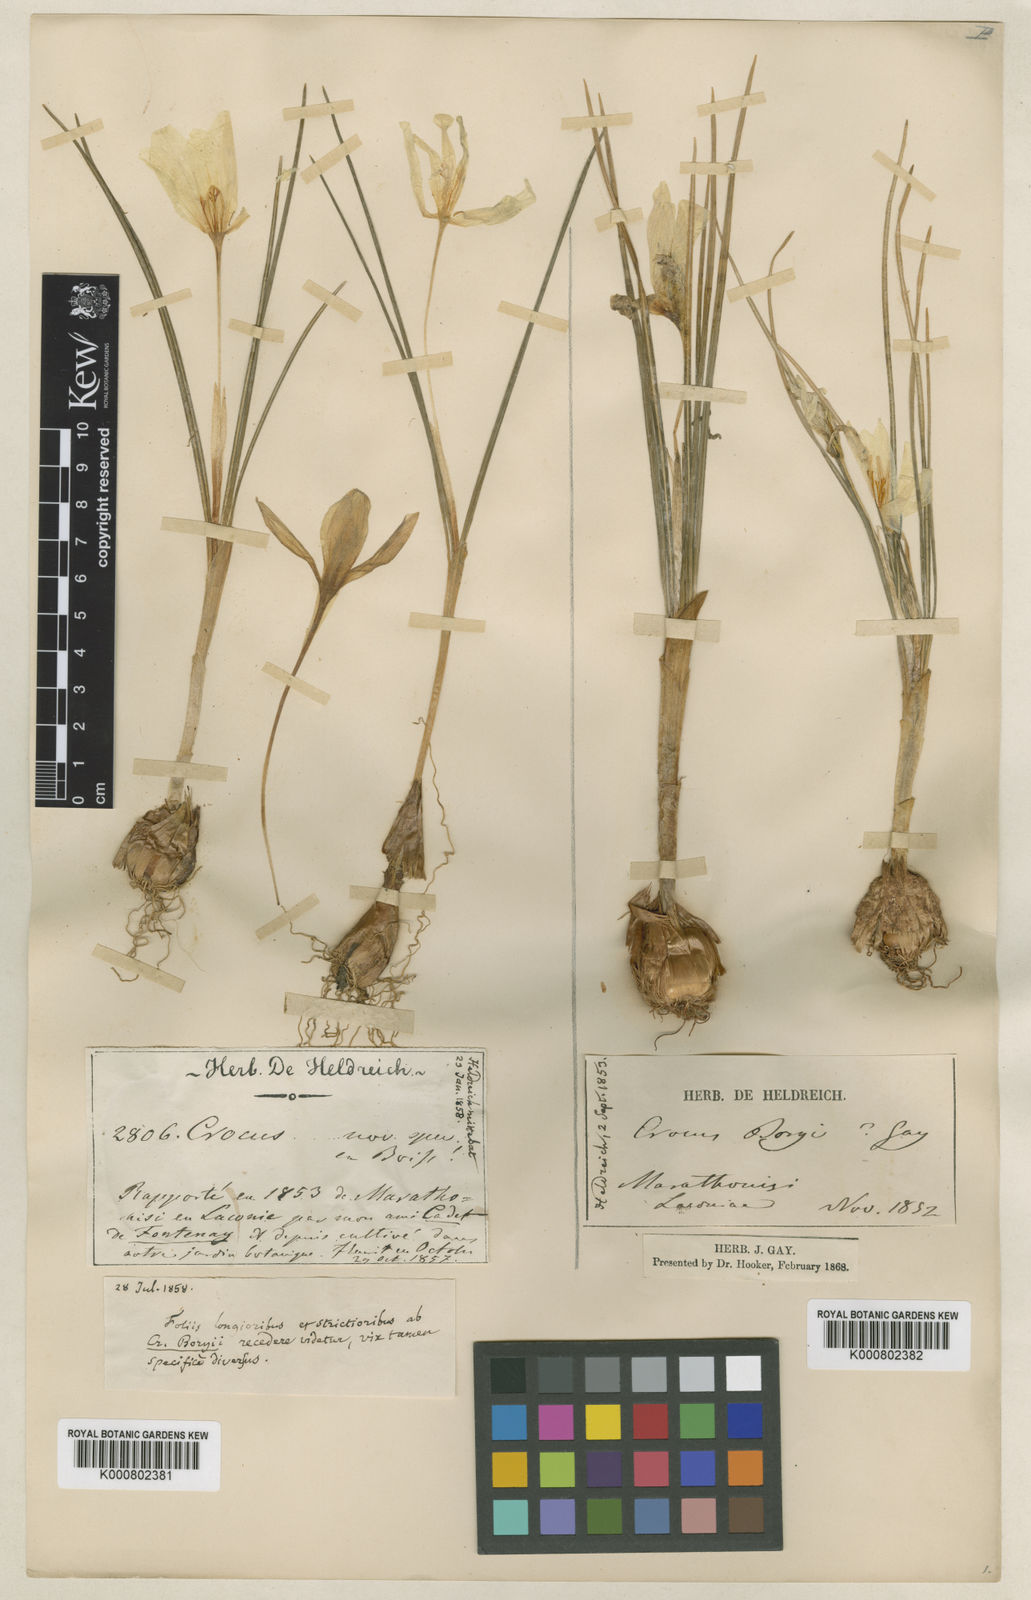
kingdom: Plantae
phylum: Tracheophyta
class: Liliopsida
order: Asparagales
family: Iridaceae
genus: Crocus
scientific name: Crocus boryi
